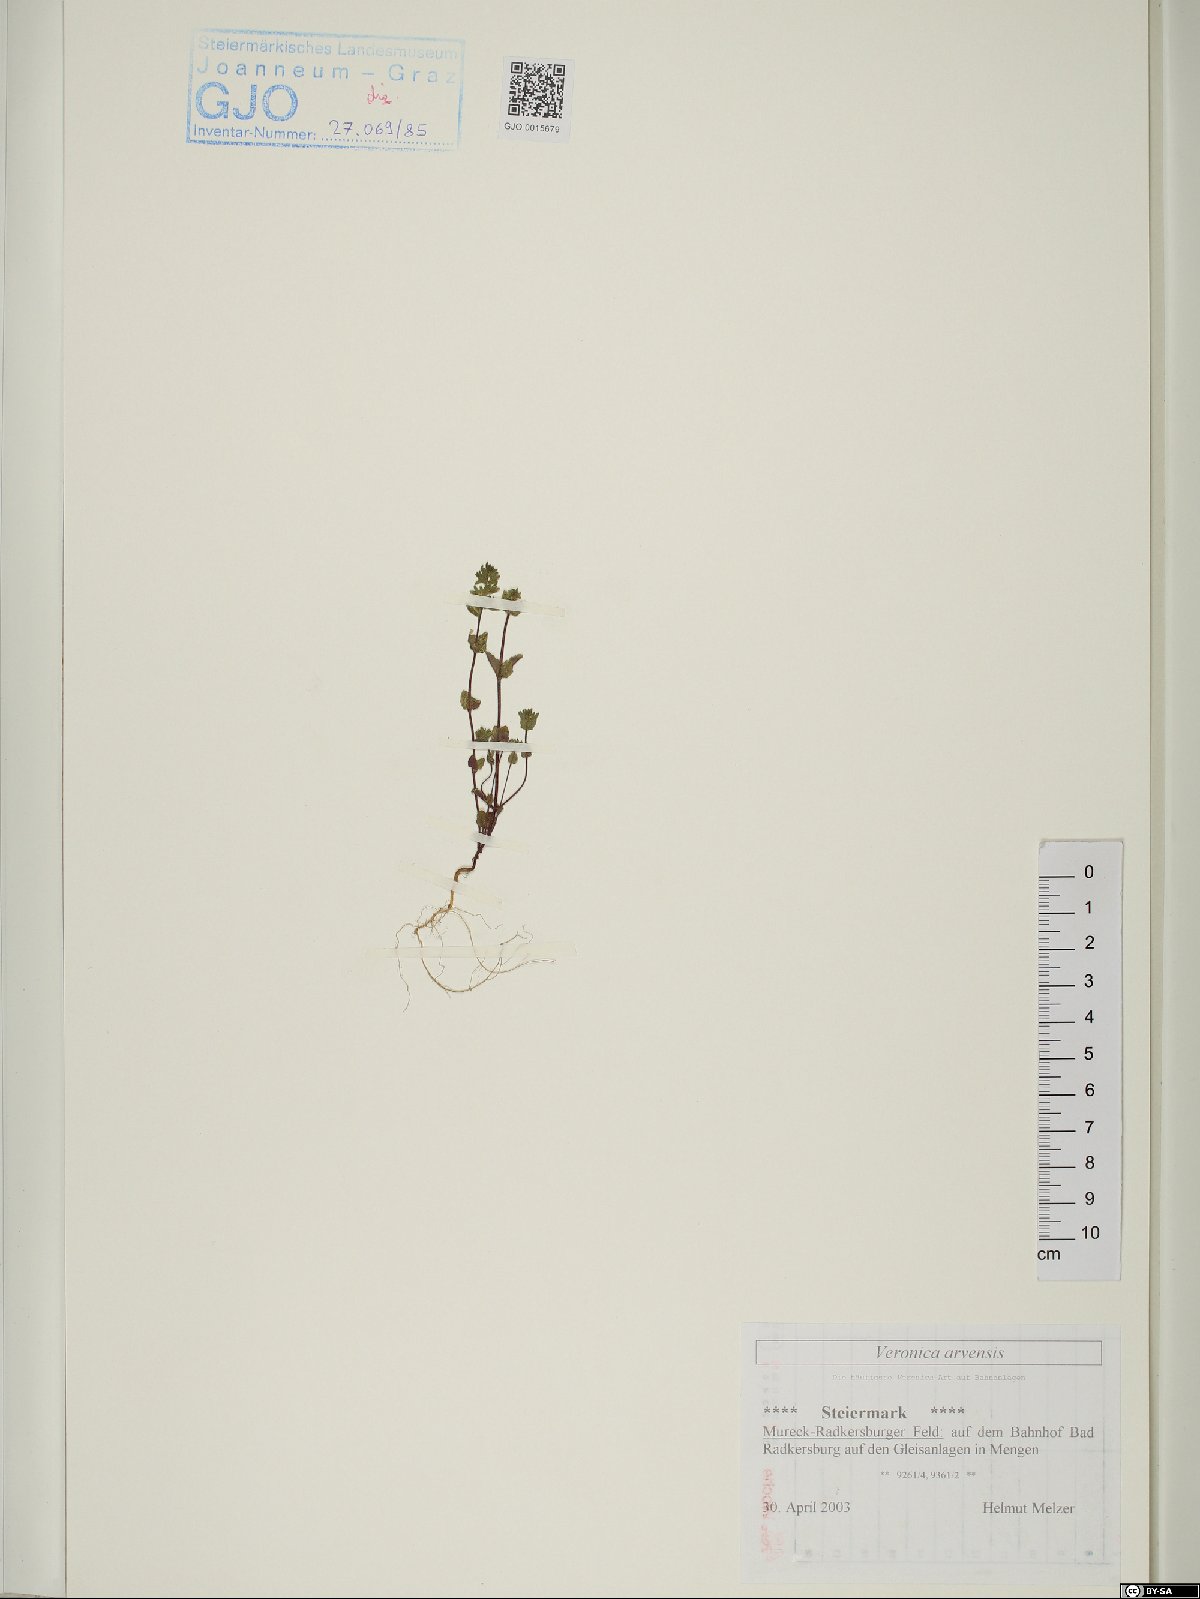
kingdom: Plantae
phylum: Tracheophyta
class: Magnoliopsida
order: Lamiales
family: Plantaginaceae
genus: Veronica
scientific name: Veronica arvensis
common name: Corn speedwell
